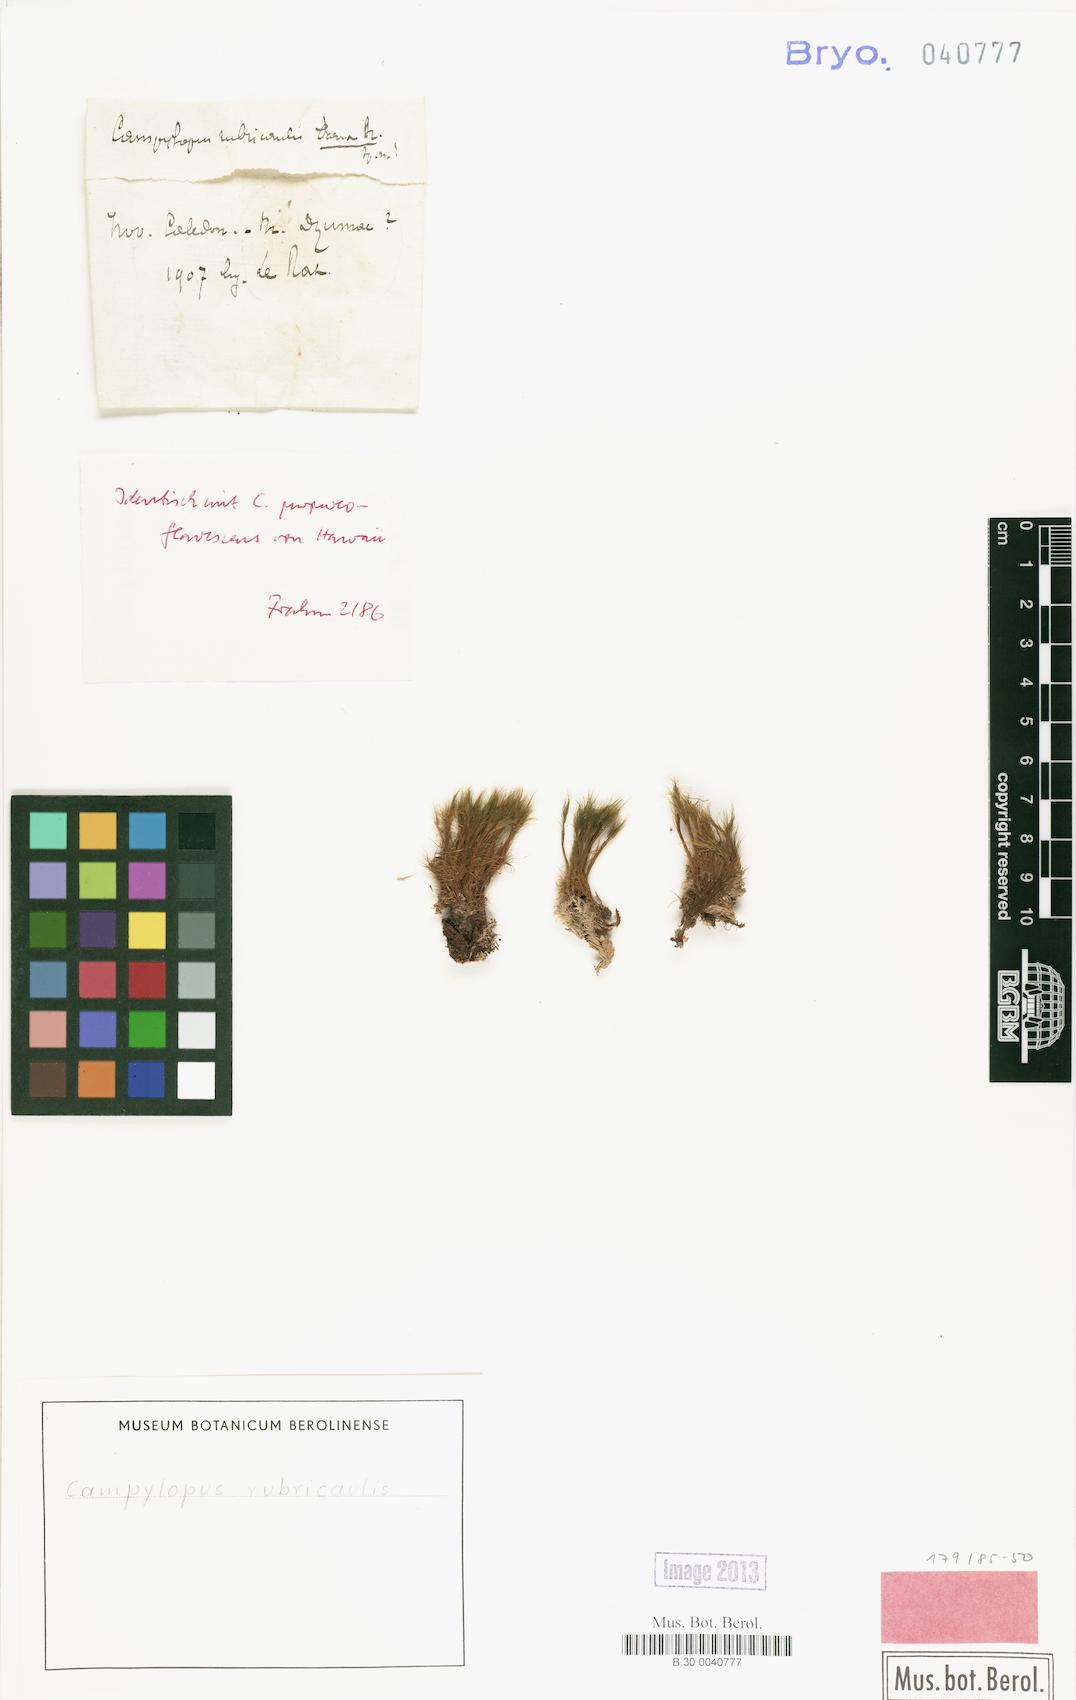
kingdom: Plantae
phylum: Bryophyta
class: Bryopsida
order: Dicranales
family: Leucobryaceae
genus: Campylopus
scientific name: Campylopus hawaiicus
